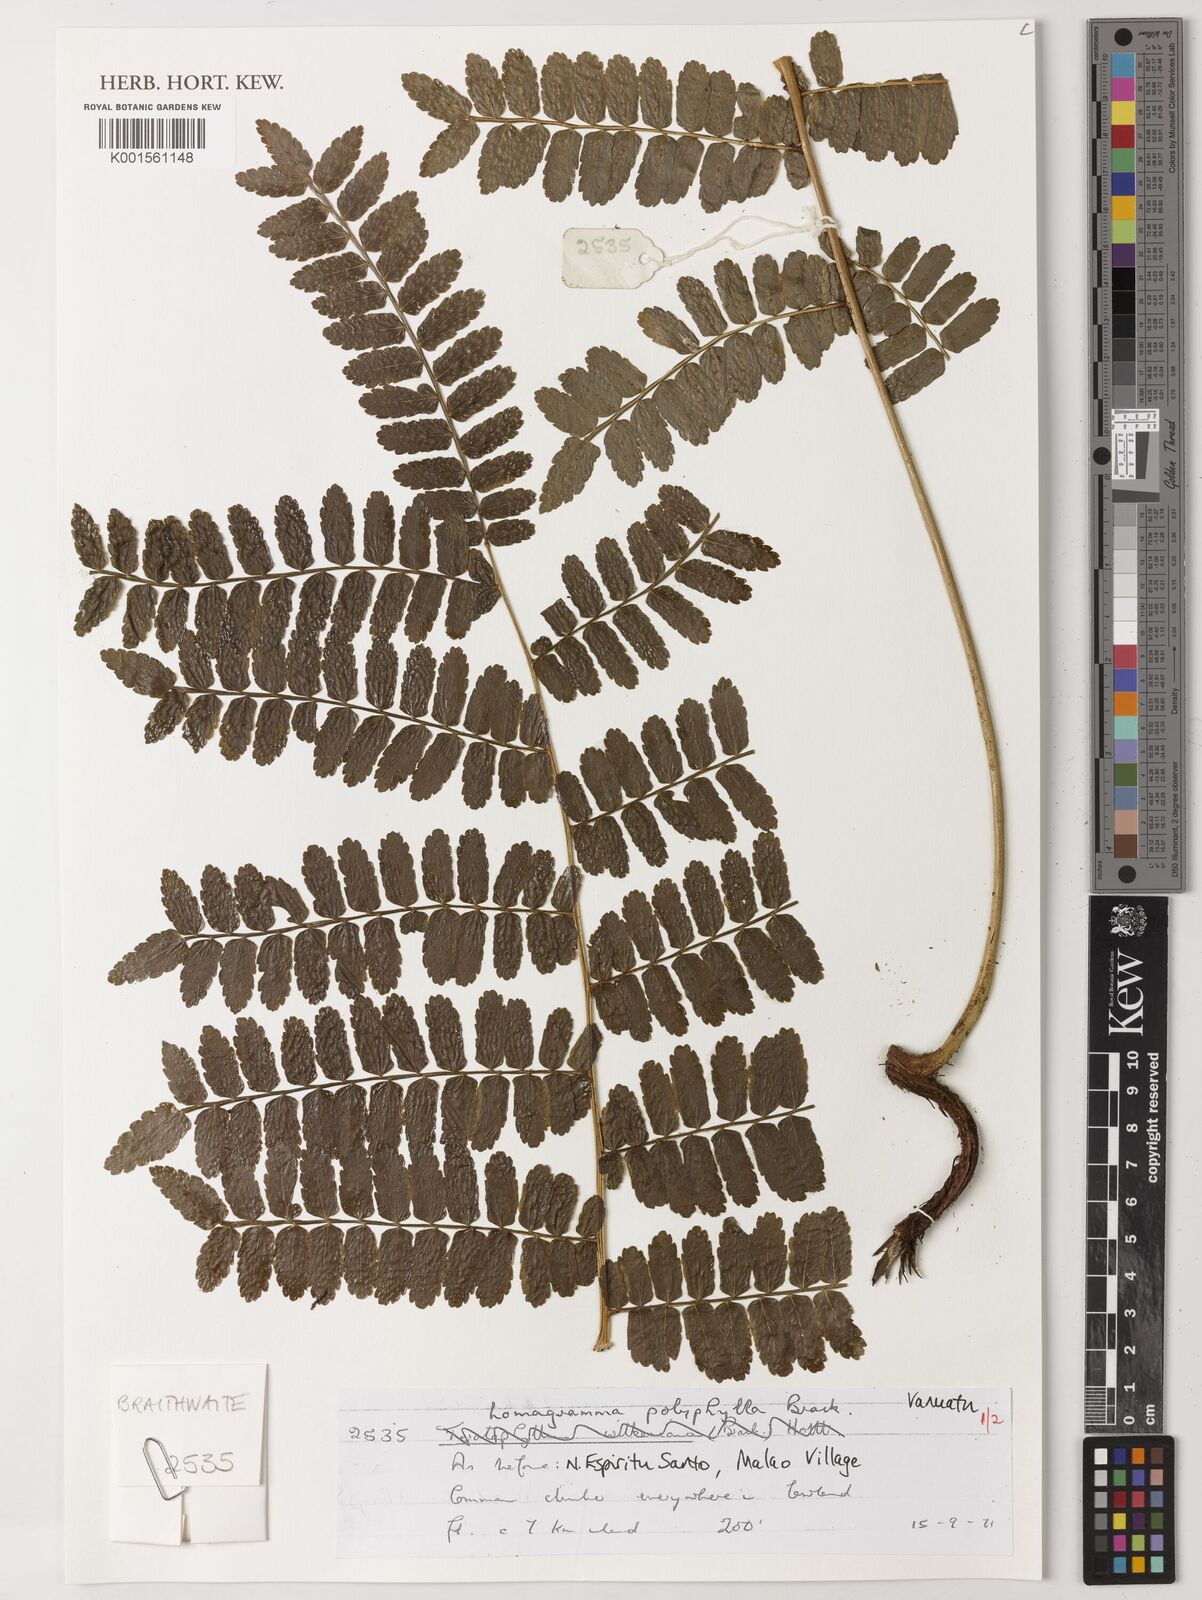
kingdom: Plantae
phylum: Tracheophyta
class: Polypodiopsida
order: Polypodiales
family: Dryopteridaceae
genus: Lomagramma
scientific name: Lomagramma polyphylla
